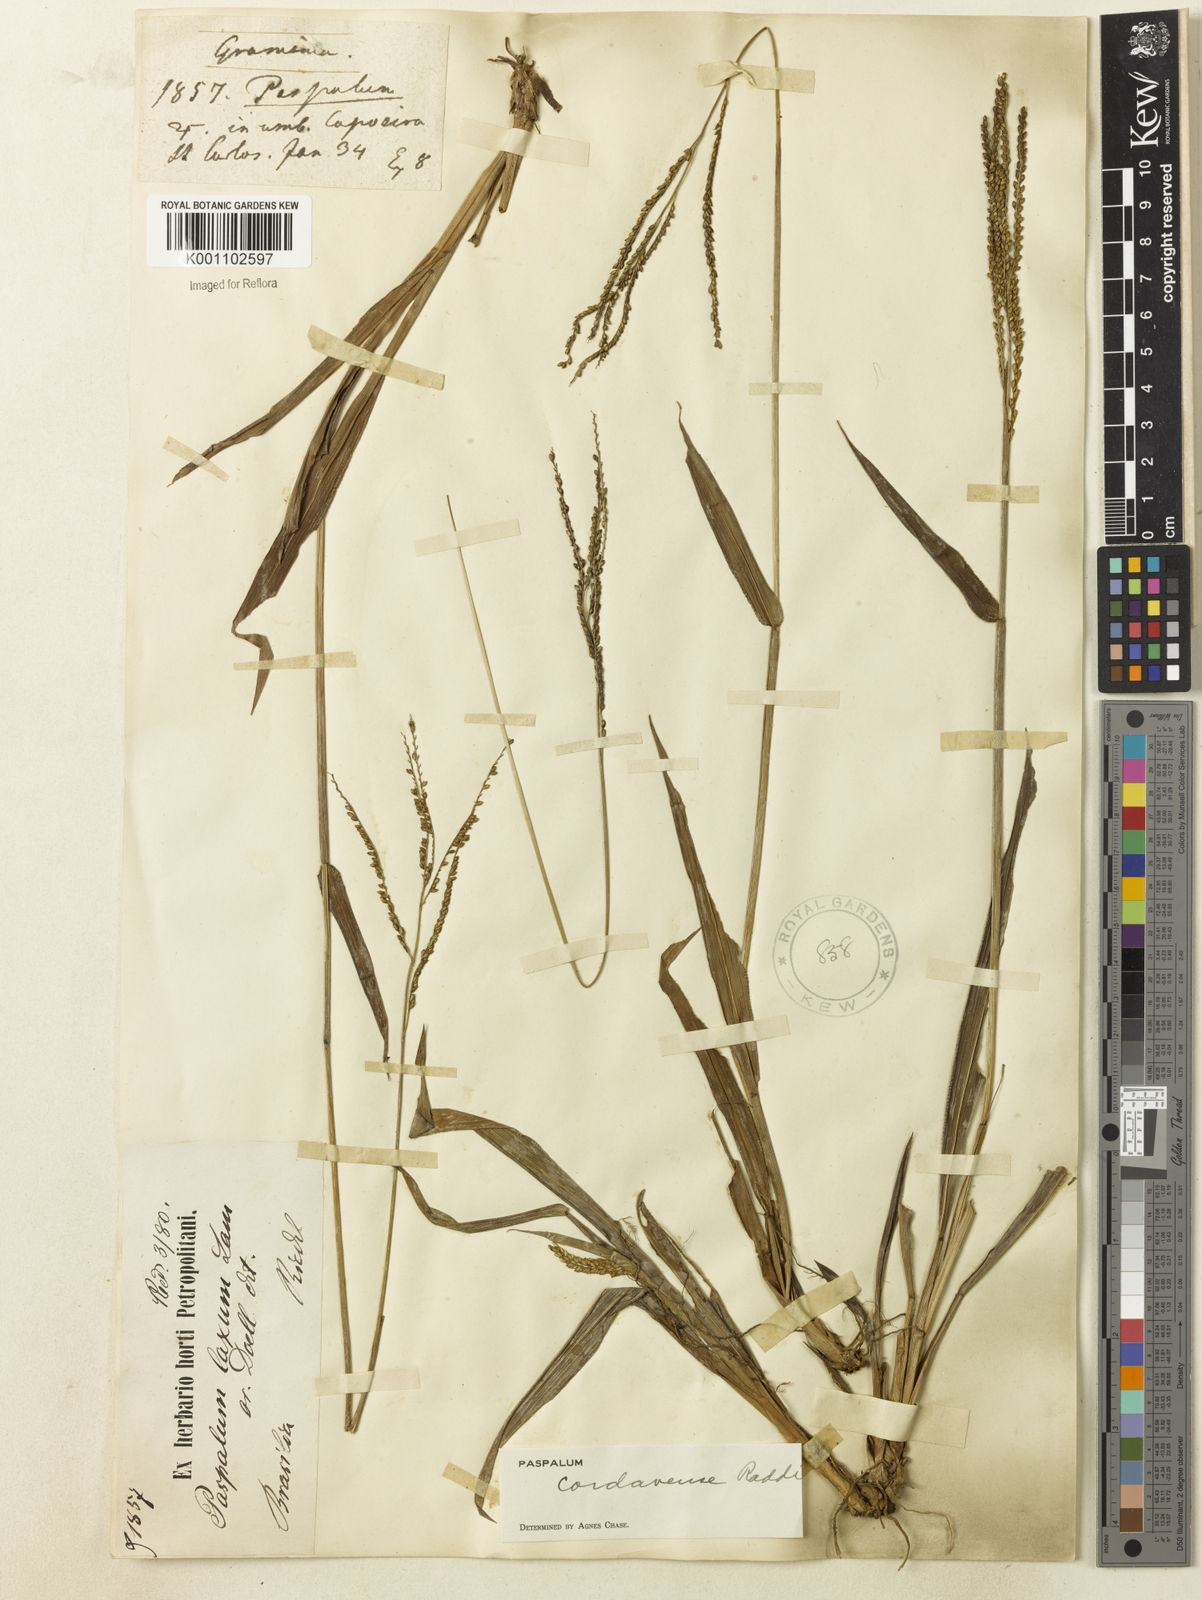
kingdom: Plantae
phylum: Tracheophyta
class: Liliopsida
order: Poales
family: Poaceae
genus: Paspalum
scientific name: Paspalum corcovadense
